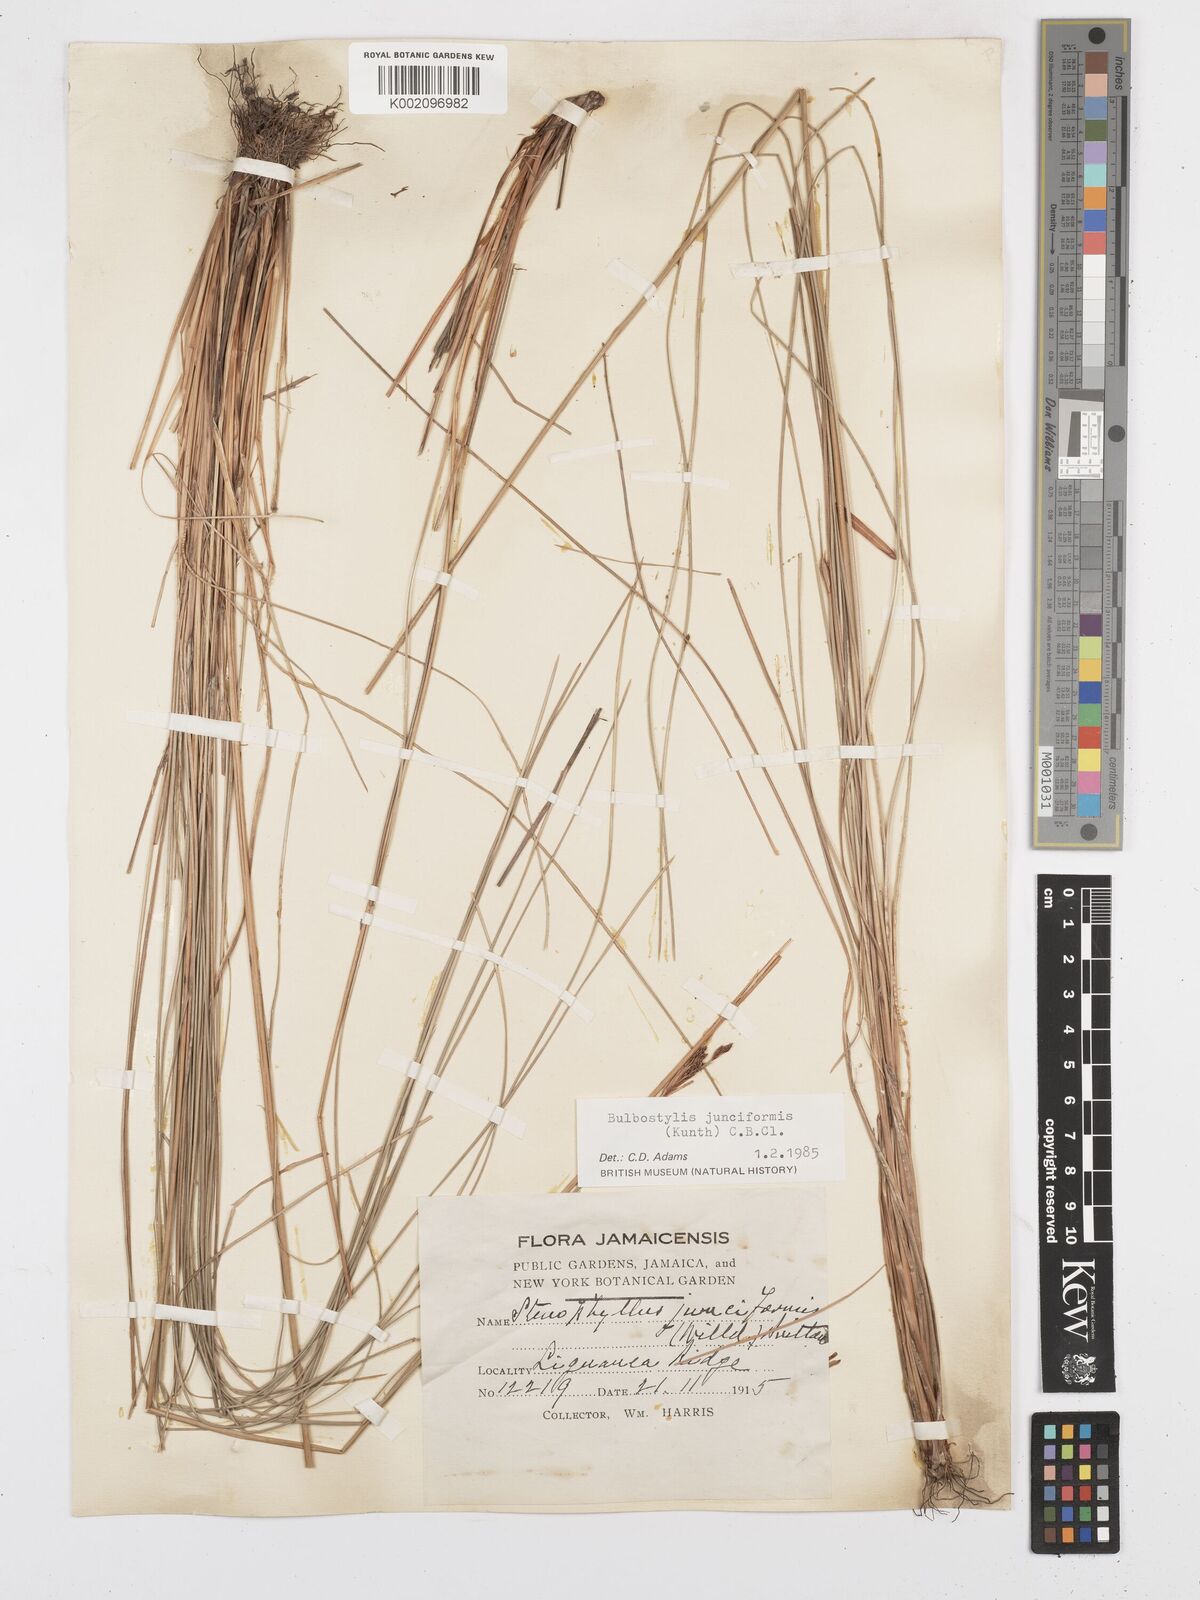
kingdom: Plantae
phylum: Tracheophyta
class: Liliopsida
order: Poales
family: Cyperaceae
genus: Bulbostylis
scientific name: Bulbostylis junciformis
